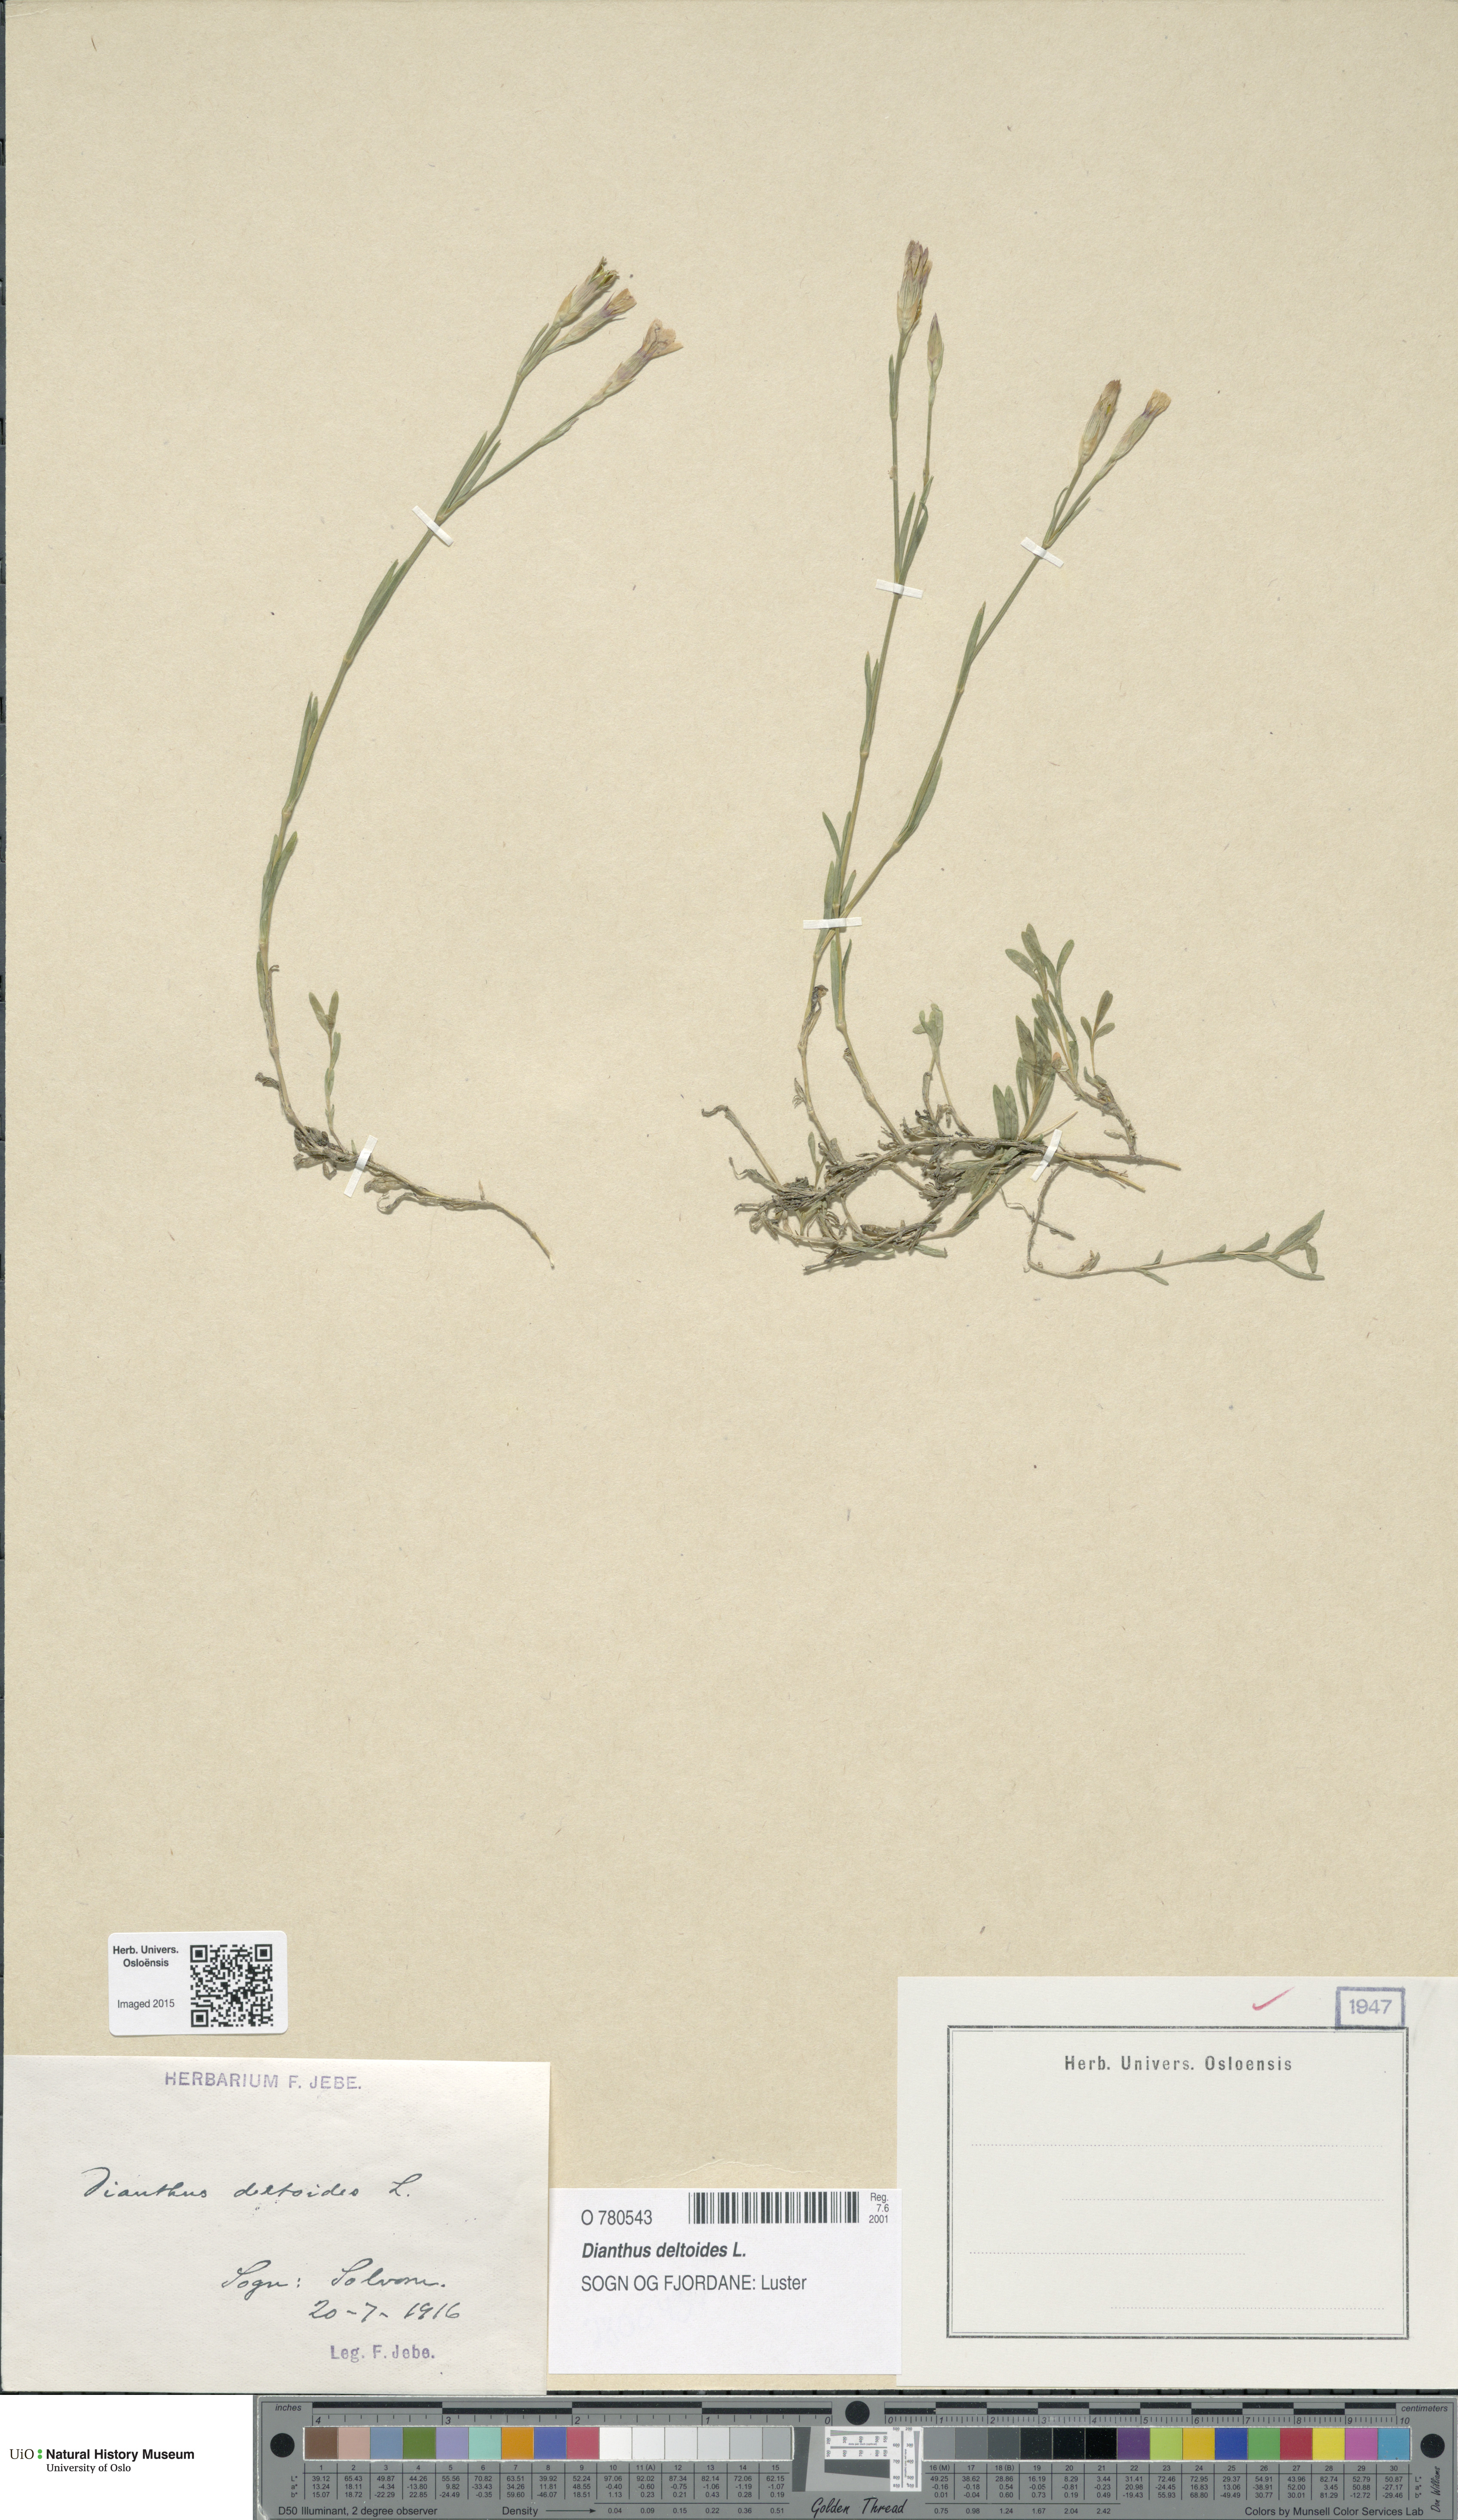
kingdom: Plantae
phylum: Tracheophyta
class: Magnoliopsida
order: Caryophyllales
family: Caryophyllaceae
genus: Dianthus
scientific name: Dianthus deltoides
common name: Maiden pink
